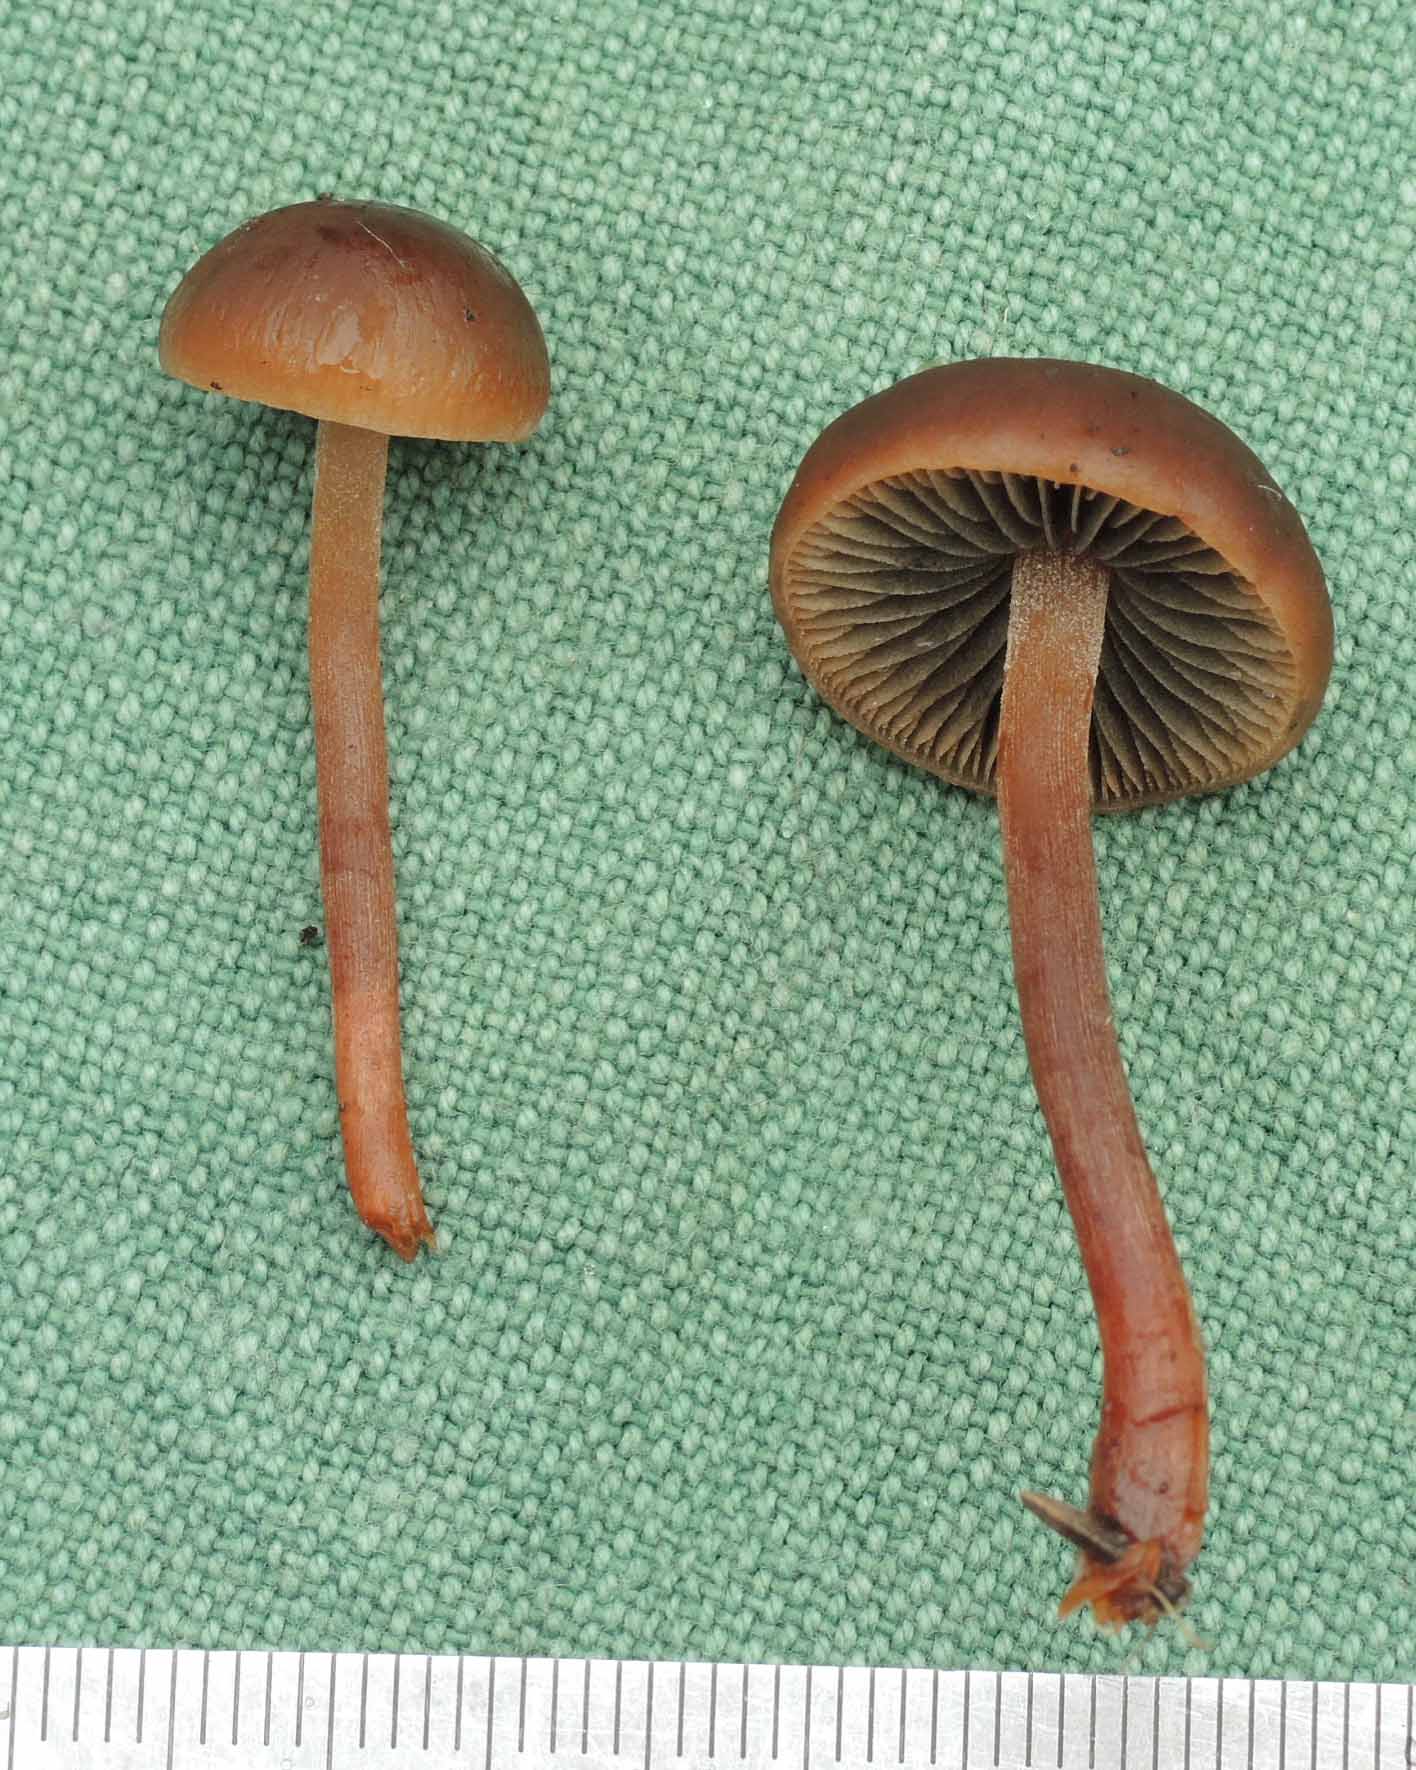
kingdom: Fungi
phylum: Basidiomycota
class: Agaricomycetes
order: Agaricales
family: Bolbitiaceae
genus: Panaeolus
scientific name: Panaeolus fimicola
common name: tidlig glanshat
